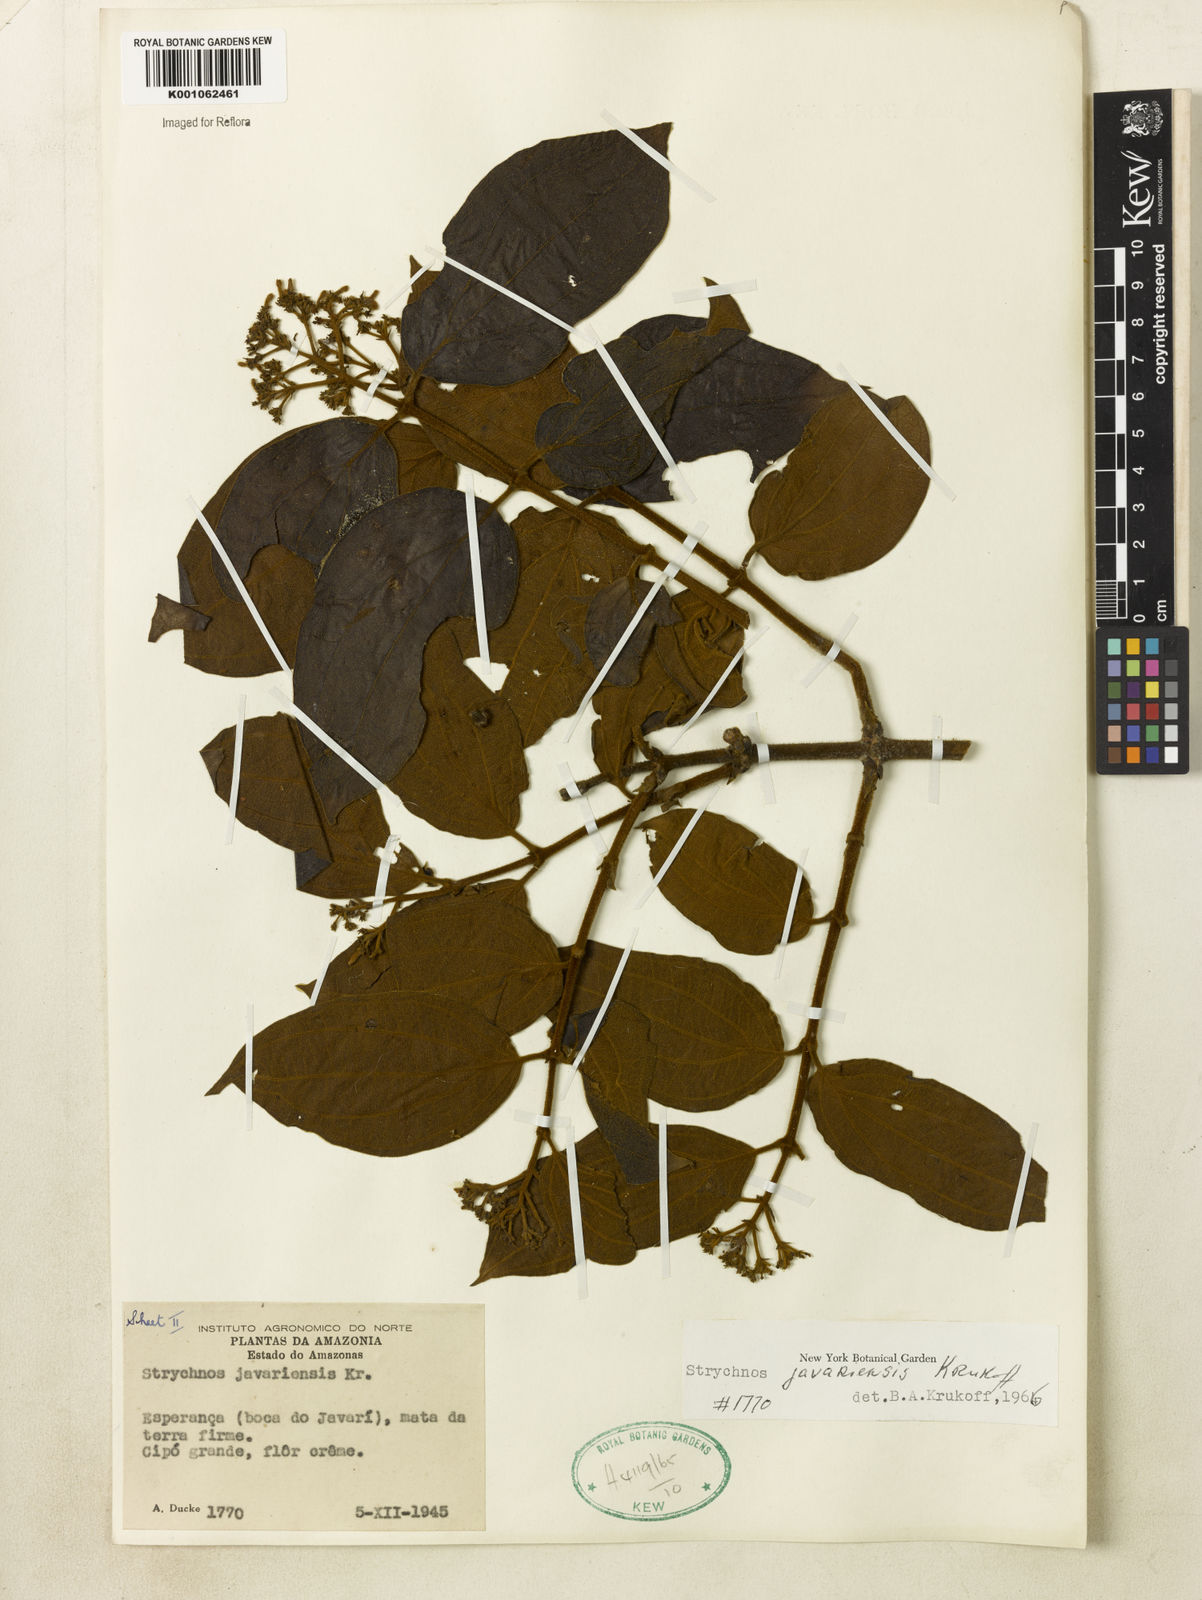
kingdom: Plantae
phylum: Tracheophyta
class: Magnoliopsida
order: Gentianales
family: Loganiaceae
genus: Strychnos
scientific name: Strychnos javariensis
